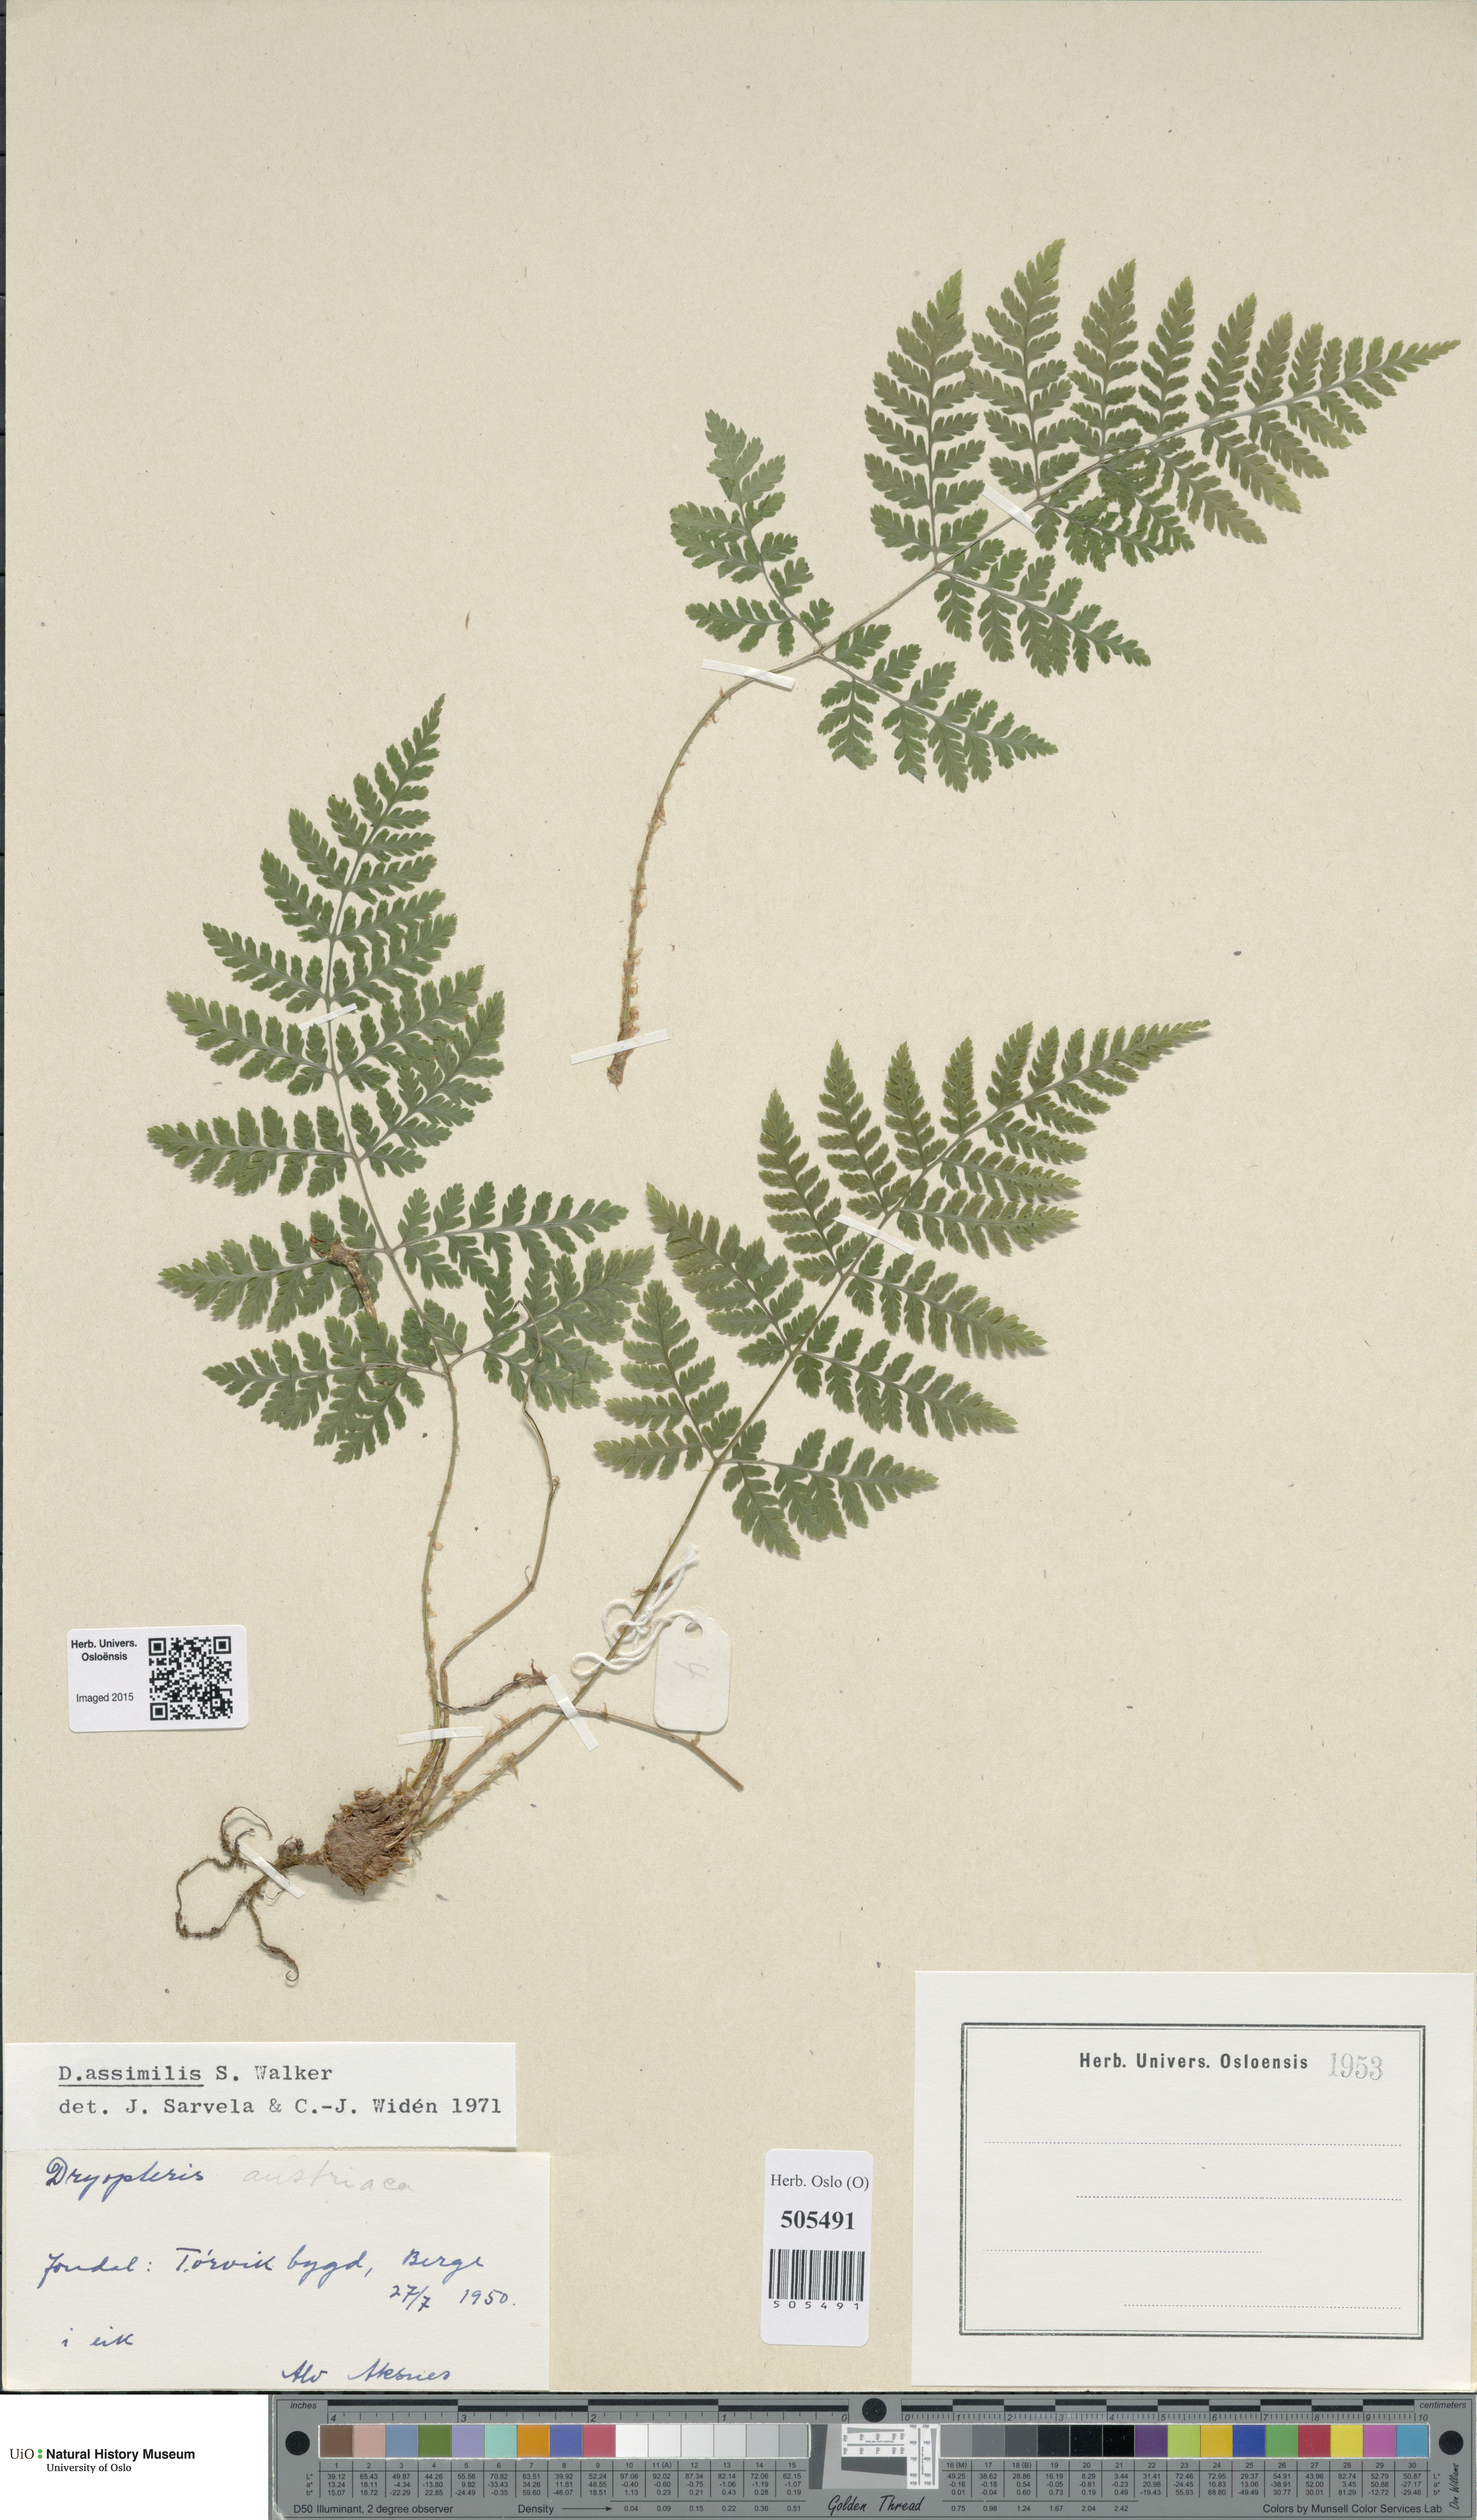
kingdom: Plantae
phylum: Tracheophyta
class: Polypodiopsida
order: Polypodiales
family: Dryopteridaceae
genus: Dryopteris
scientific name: Dryopteris expansa
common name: Northern buckler fern
